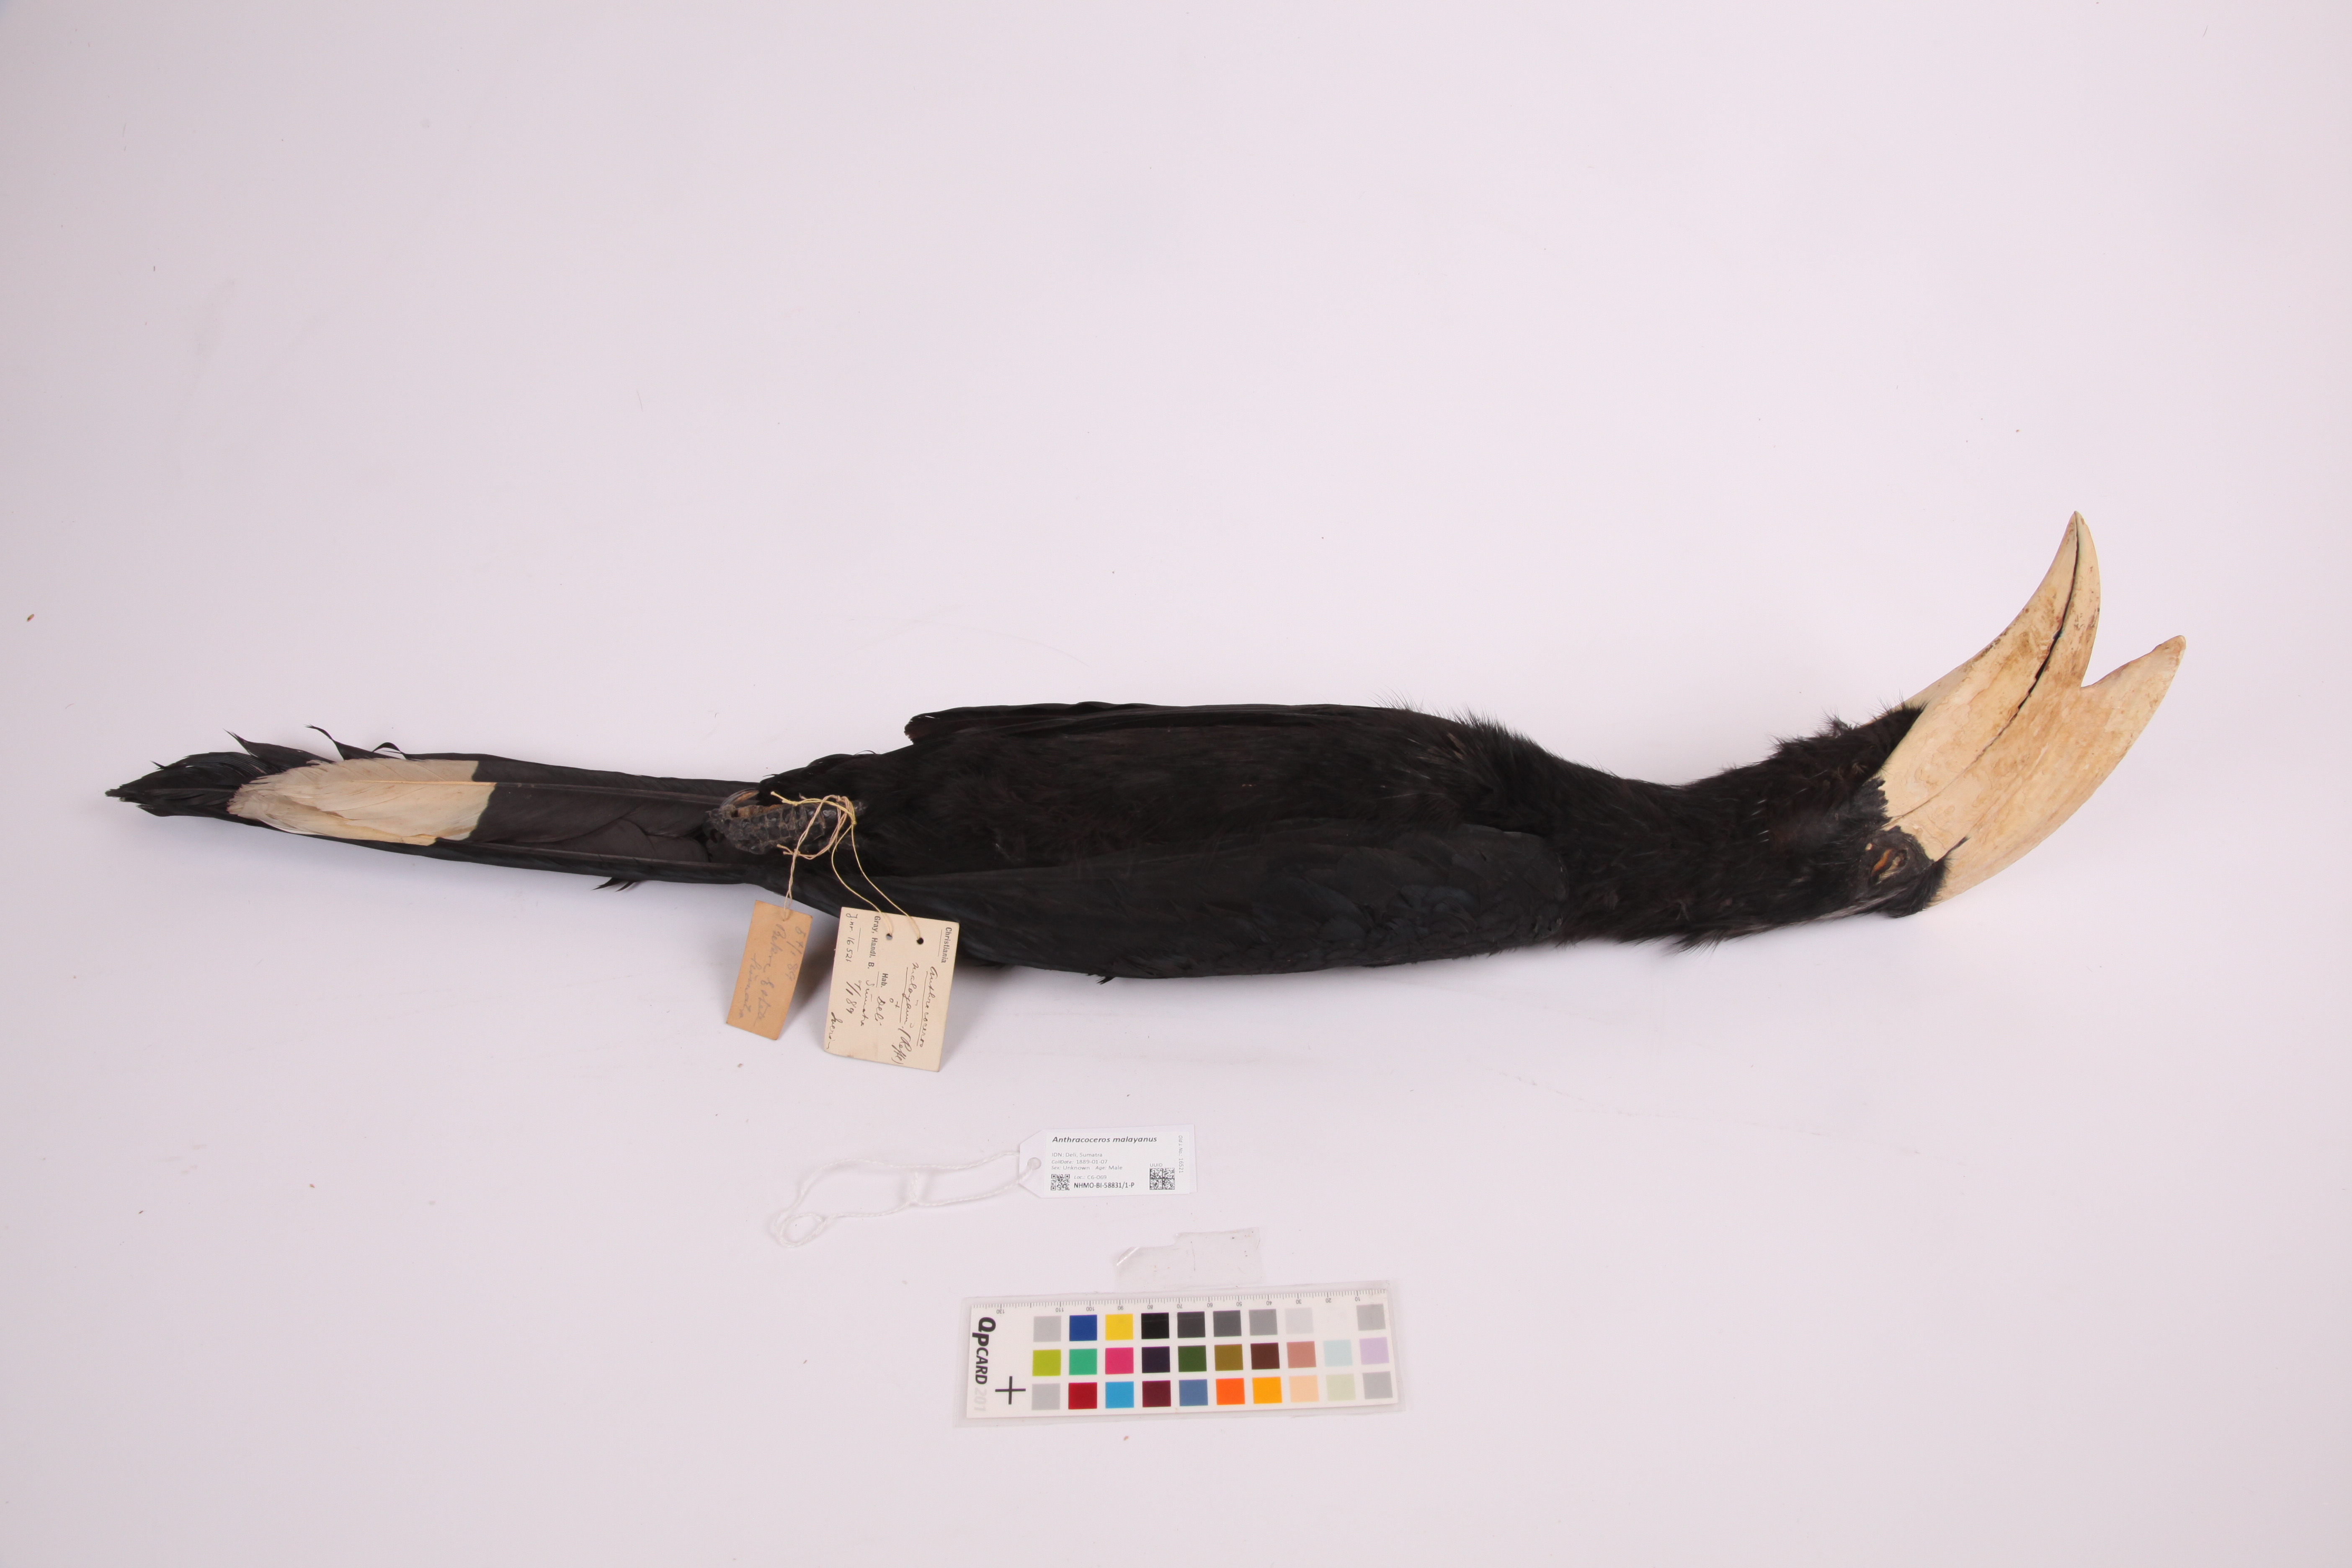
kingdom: Animalia
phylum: Chordata
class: Aves
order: Bucerotiformes
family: Bucerotidae
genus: Anthracoceros
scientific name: Anthracoceros malayanus
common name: Black hornbill
